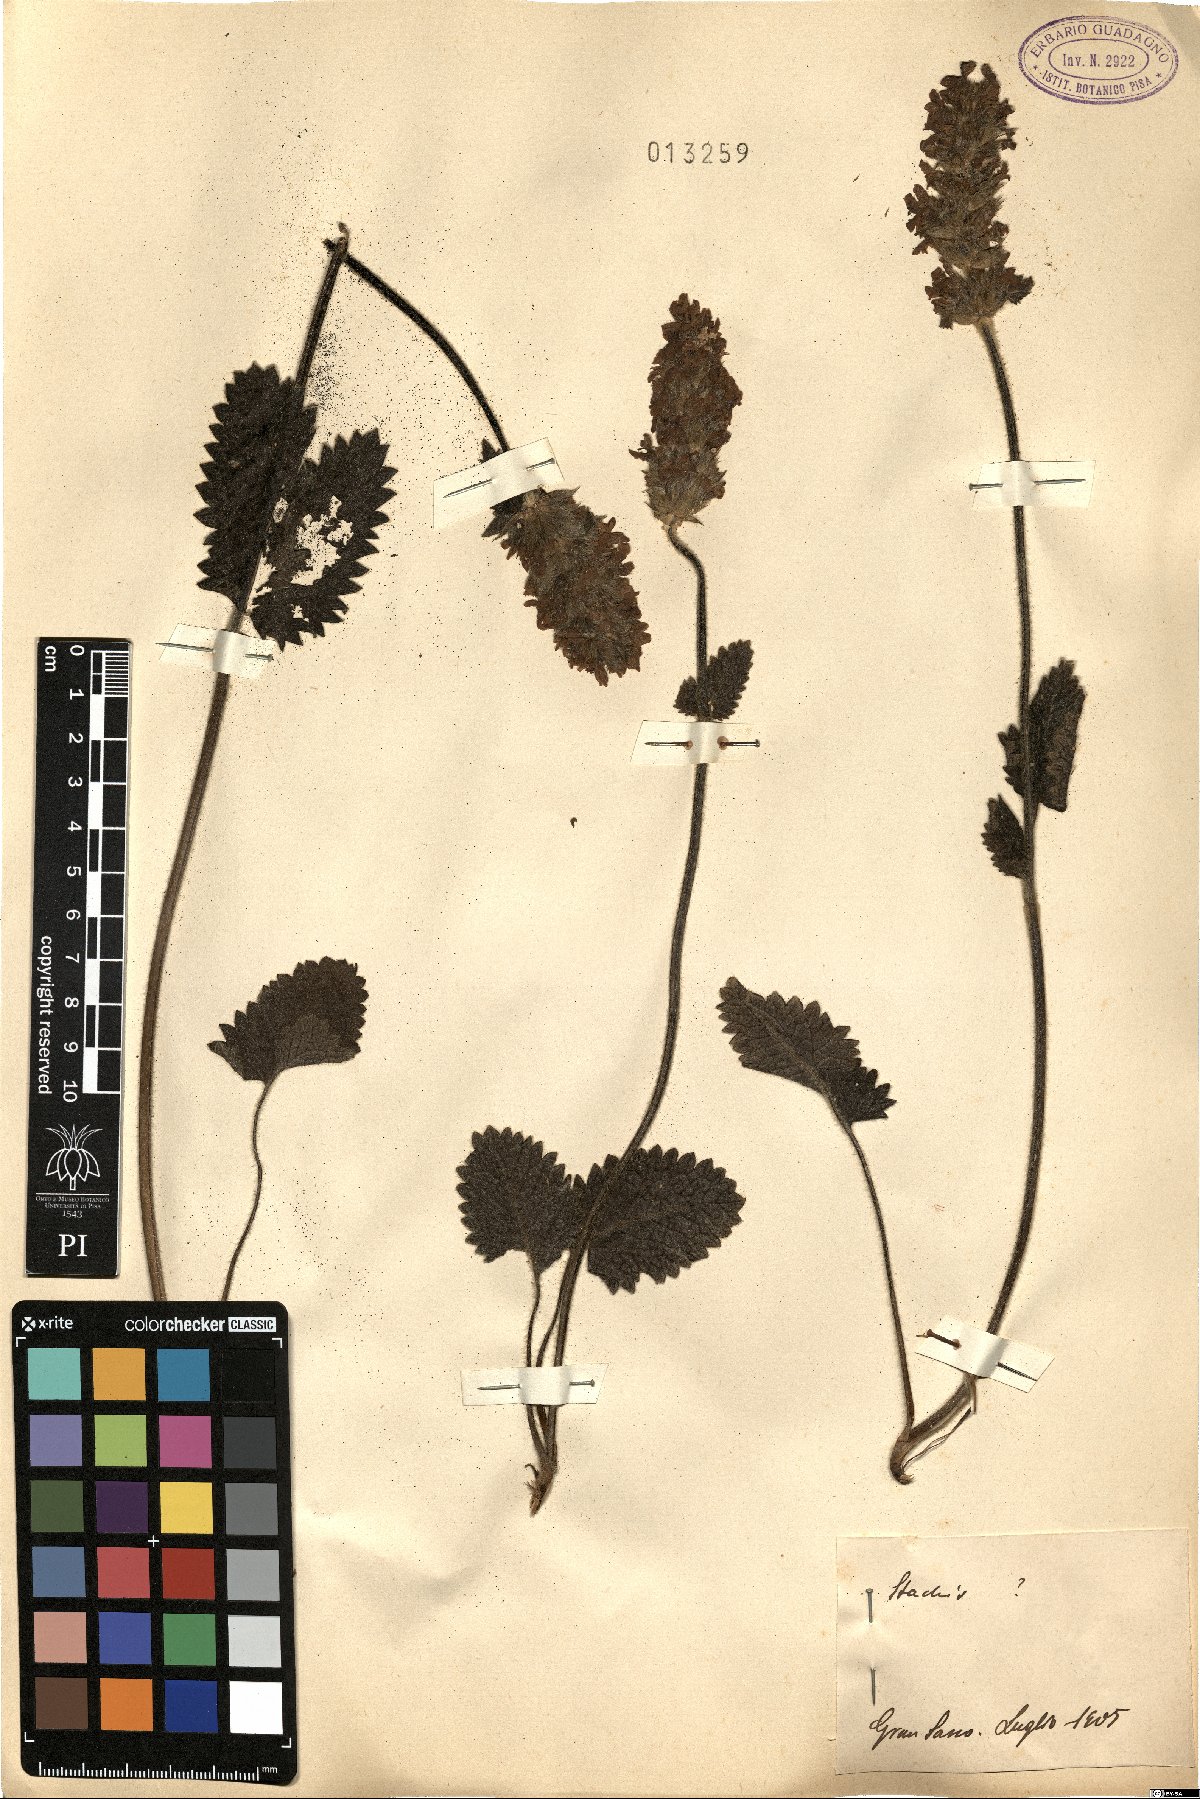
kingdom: Plantae
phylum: Tracheophyta
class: Magnoliopsida
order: Lamiales
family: Lamiaceae
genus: Stachys
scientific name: Stachys
